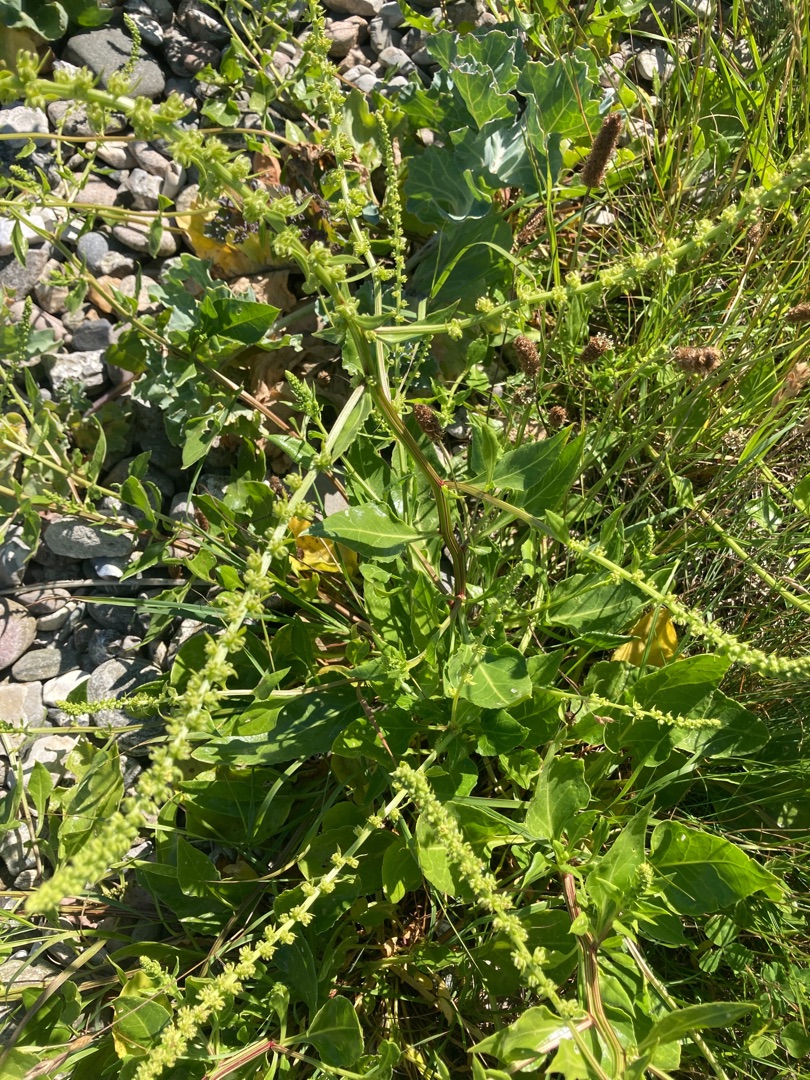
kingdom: Plantae
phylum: Tracheophyta
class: Magnoliopsida
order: Caryophyllales
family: Amaranthaceae
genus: Beta
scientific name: Beta maritima
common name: Strand-bede
